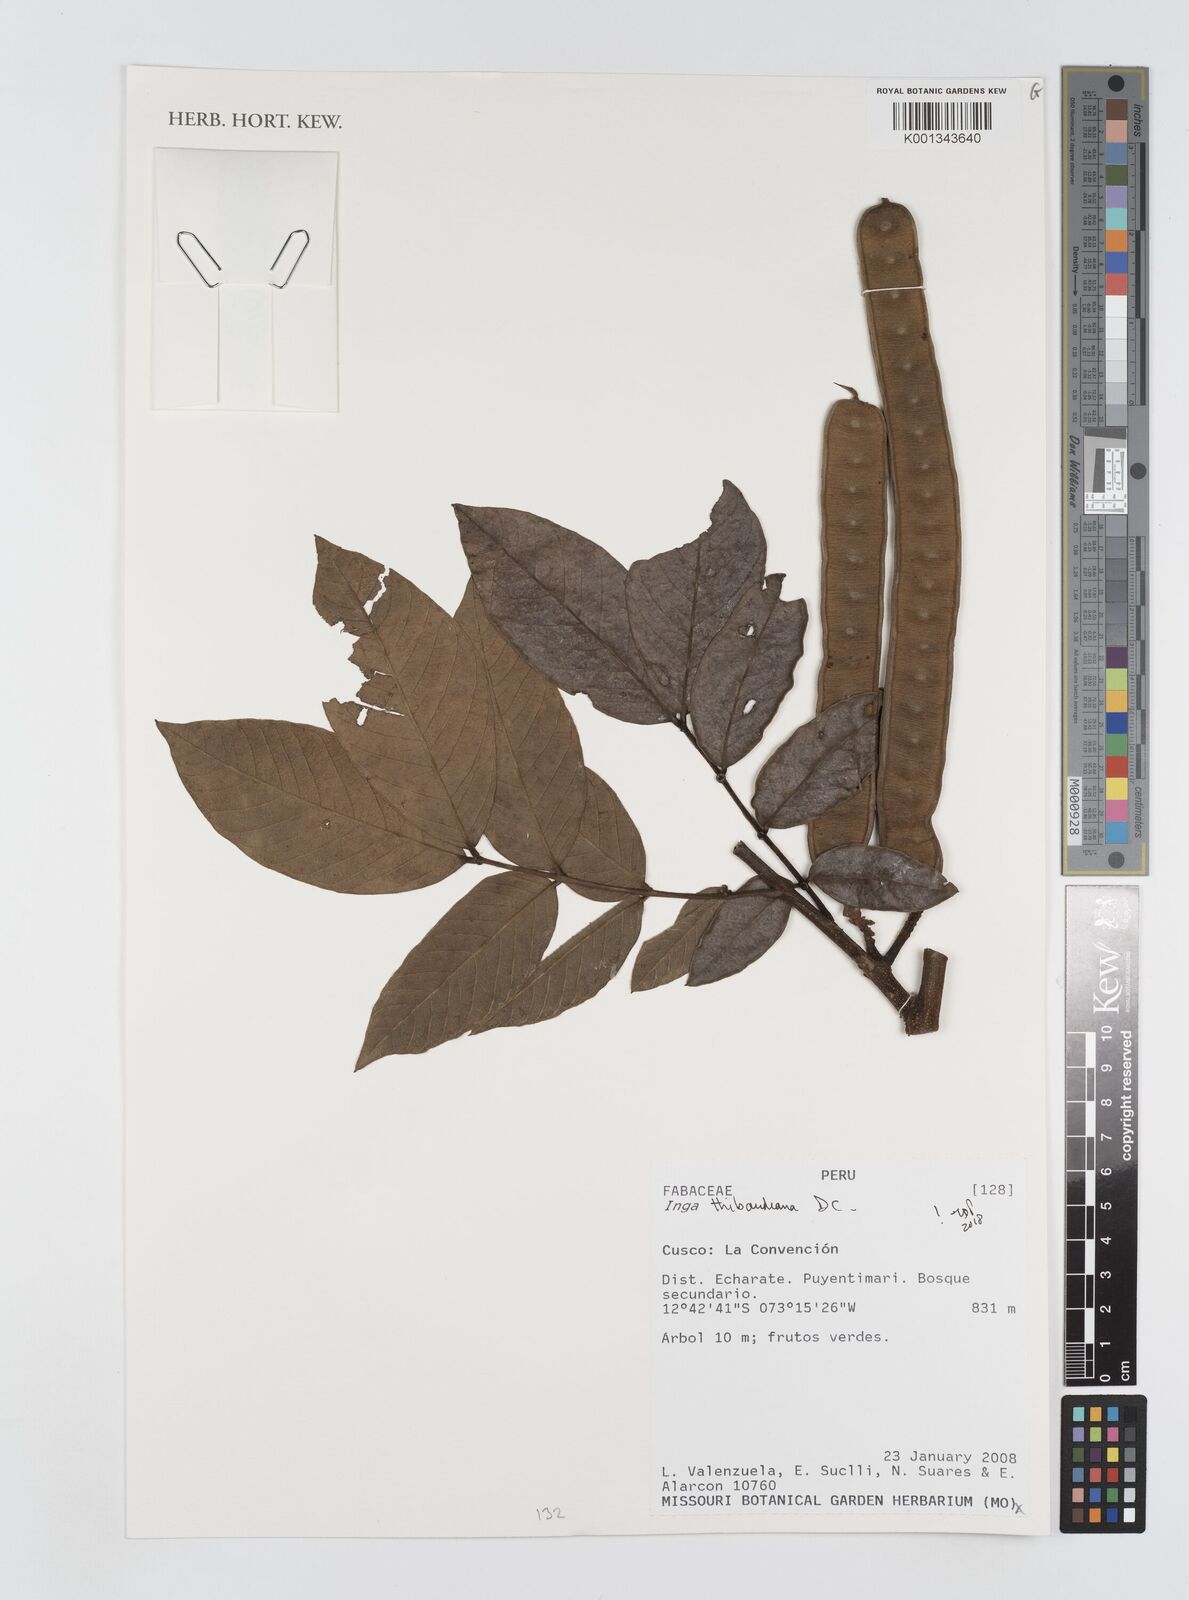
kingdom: Plantae
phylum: Tracheophyta
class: Magnoliopsida
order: Fabales
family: Fabaceae
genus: Inga
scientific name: Inga thibaudiana
